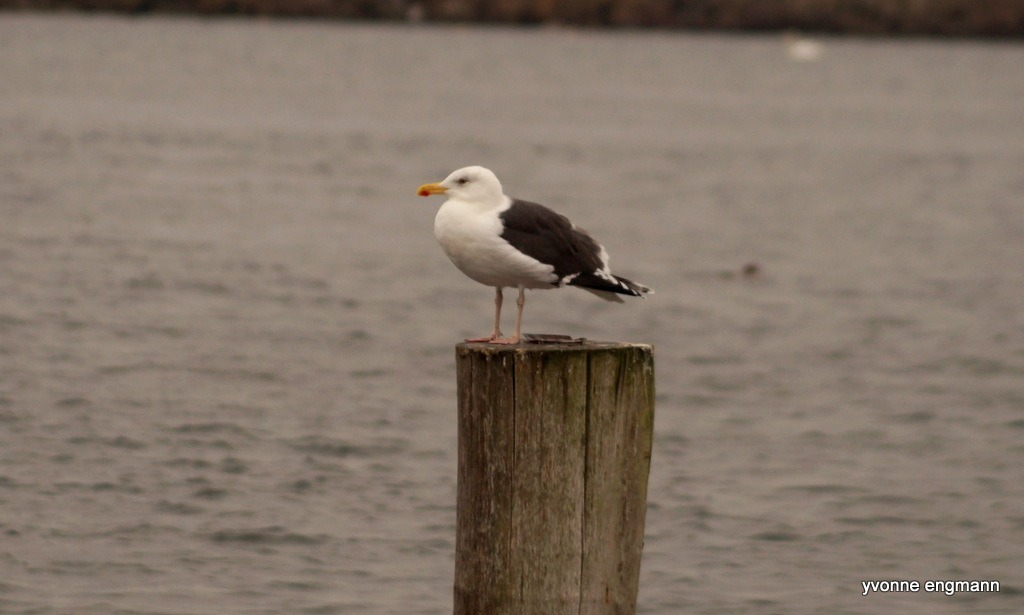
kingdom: Animalia
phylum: Chordata
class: Aves
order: Charadriiformes
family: Laridae
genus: Larus
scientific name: Larus marinus
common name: Svartbag
